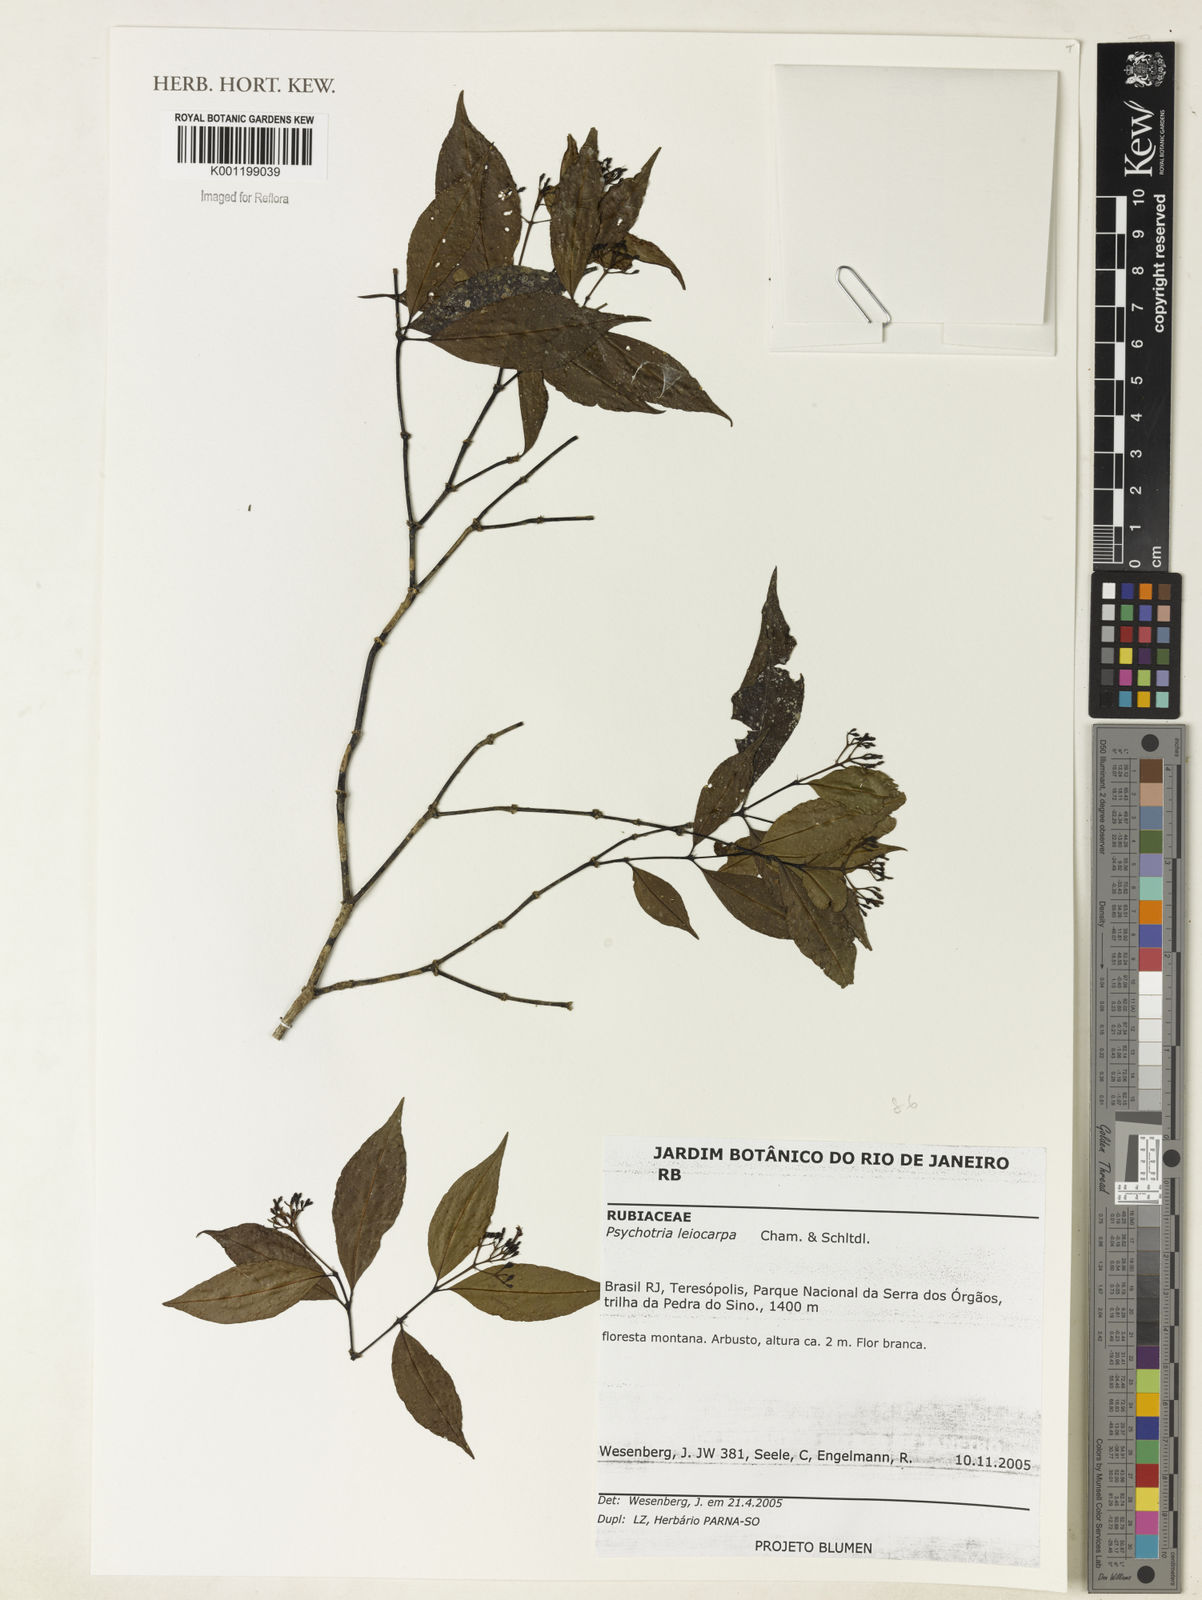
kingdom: Plantae
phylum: Tracheophyta
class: Magnoliopsida
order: Gentianales
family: Rubiaceae
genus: Psychotria
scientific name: Psychotria leiocarpa
